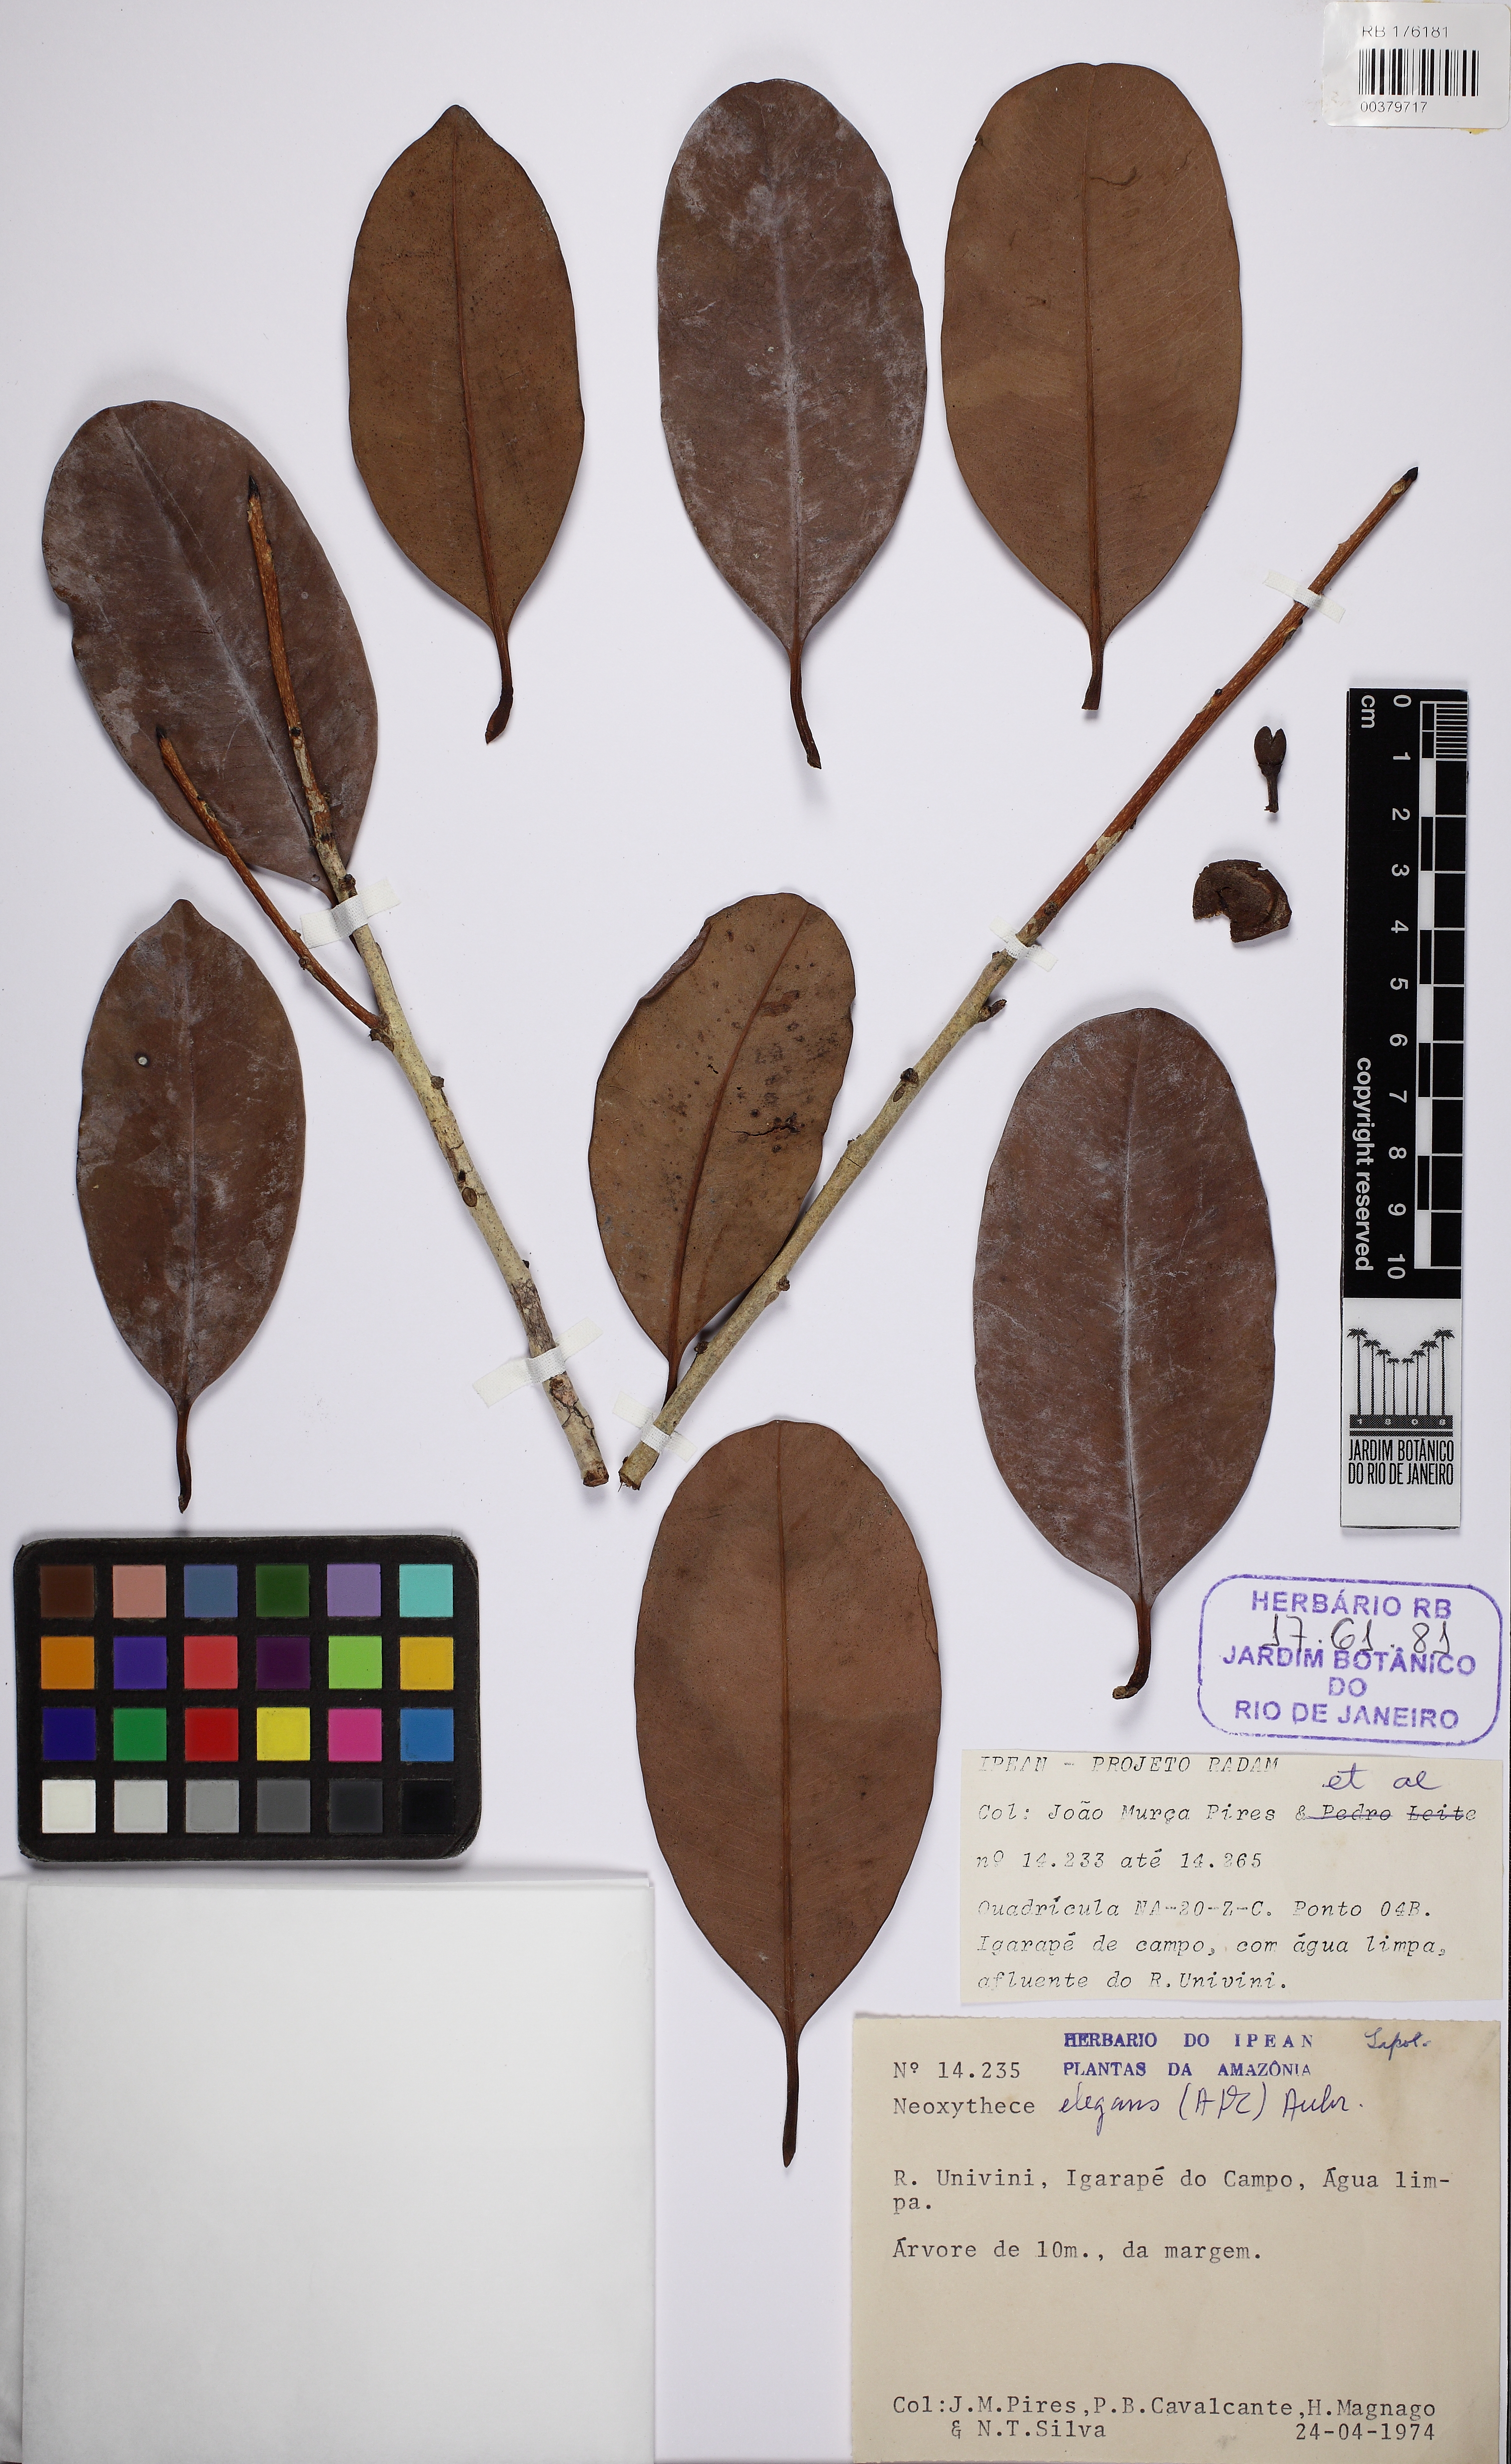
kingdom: Plantae
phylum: Tracheophyta
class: Magnoliopsida
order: Ericales
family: Sapotaceae
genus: Pouteria
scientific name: Pouteria elegans
